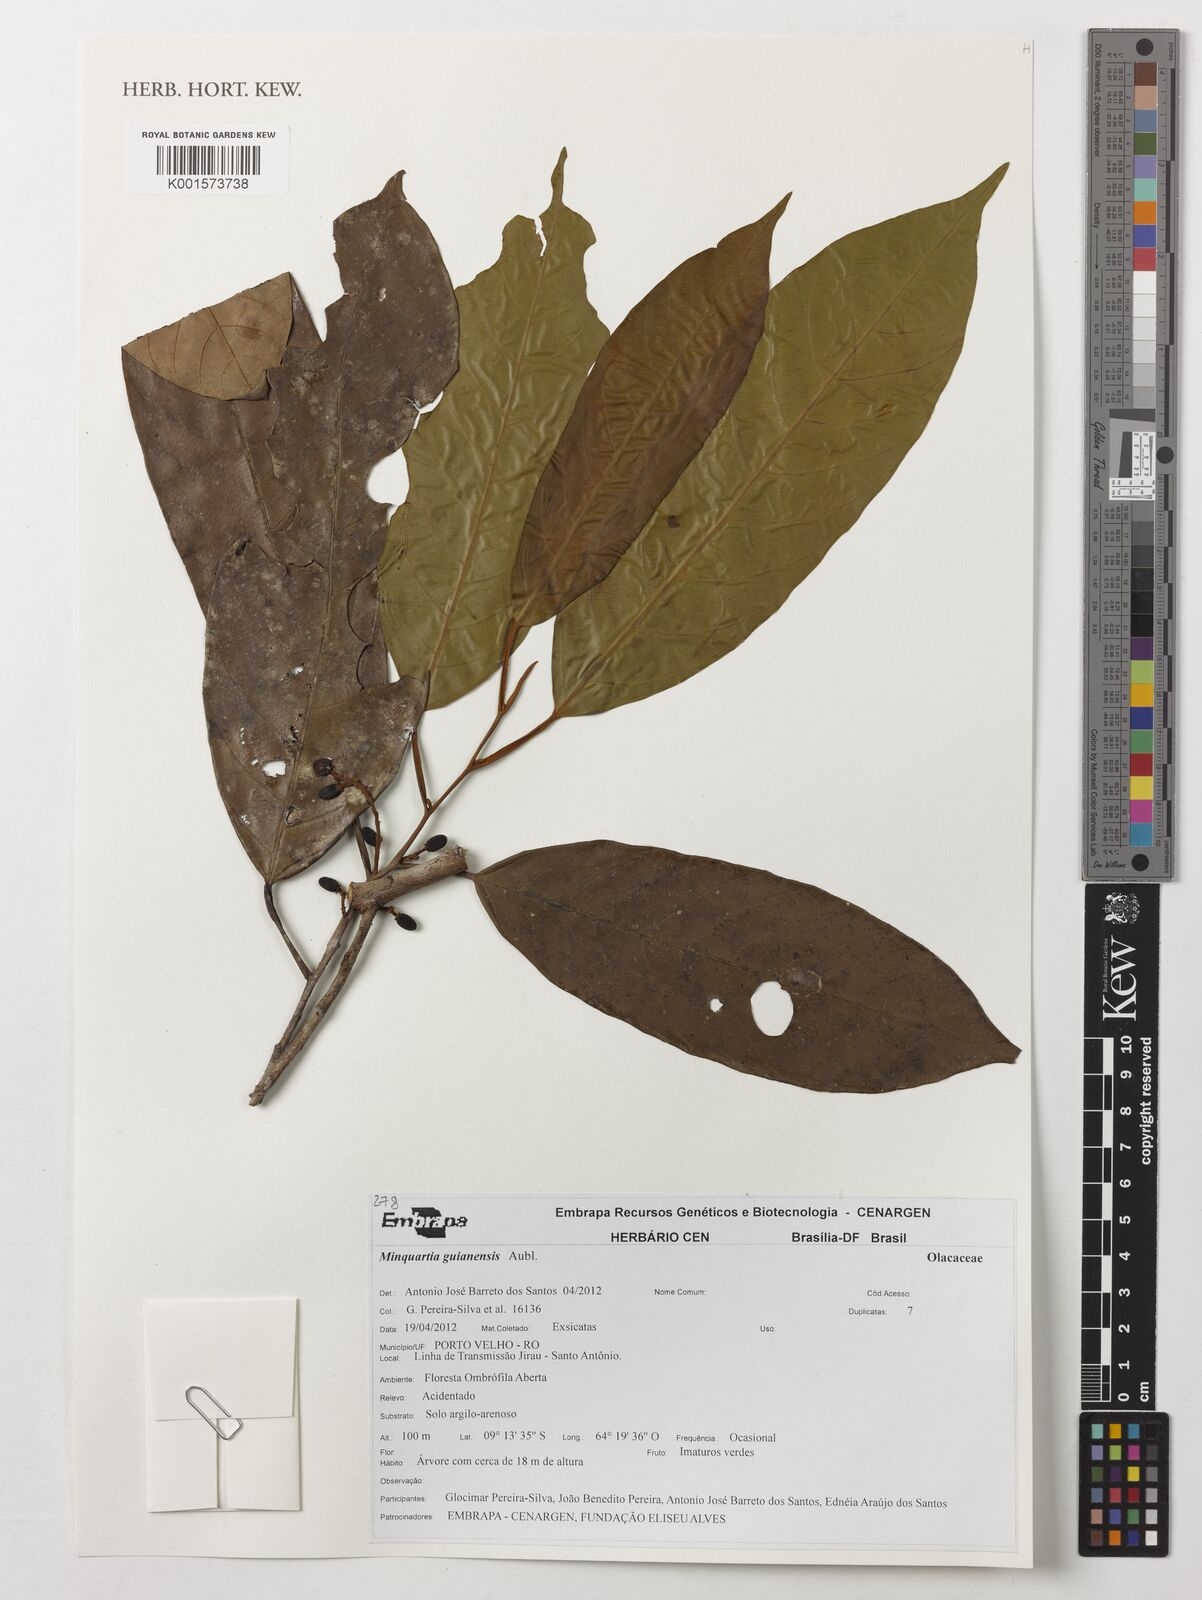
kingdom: Plantae
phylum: Tracheophyta
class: Magnoliopsida
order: Santalales
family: Coulaceae
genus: Minquartia
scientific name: Minquartia guianensis
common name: Black manwood
